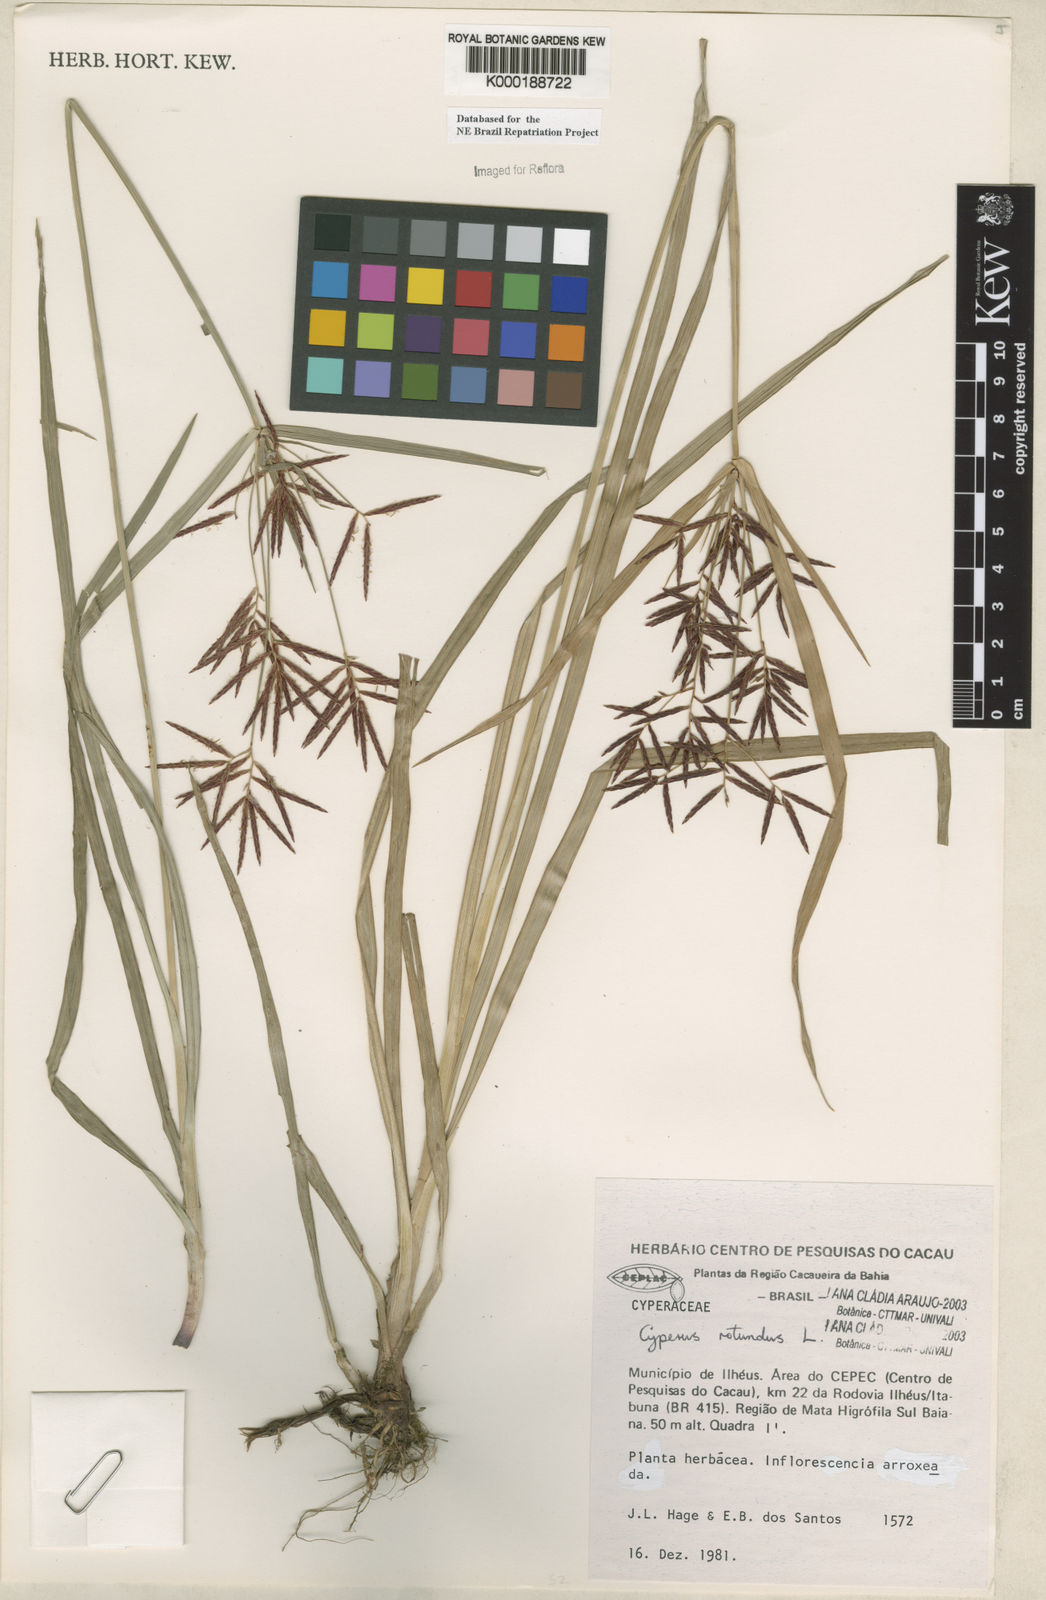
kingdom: Plantae
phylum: Tracheophyta
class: Liliopsida
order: Poales
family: Cyperaceae
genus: Cyperus
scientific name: Cyperus rotundus
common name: Nutgrass
